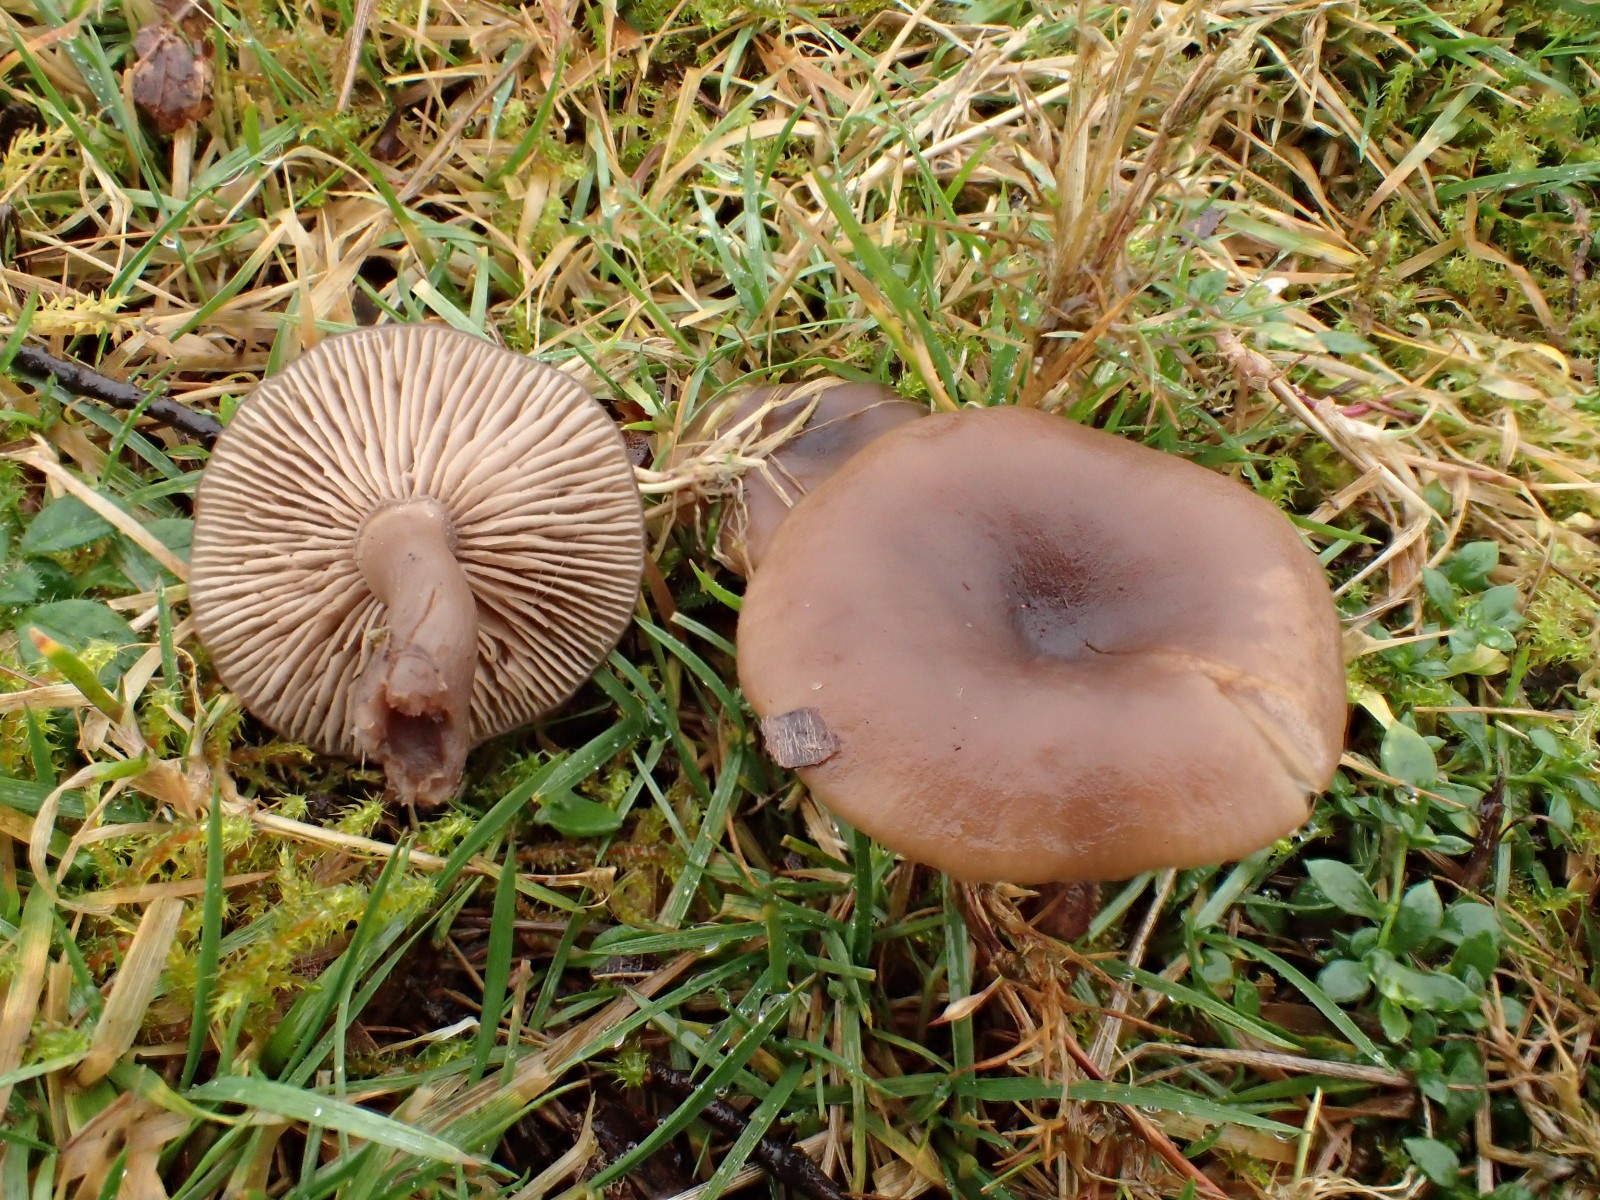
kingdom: Fungi
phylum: Basidiomycota
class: Agaricomycetes
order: Agaricales
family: Pseudoclitocybaceae
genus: Pseudoclitocybe
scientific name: Pseudoclitocybe expallens
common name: lille bægertragthat
